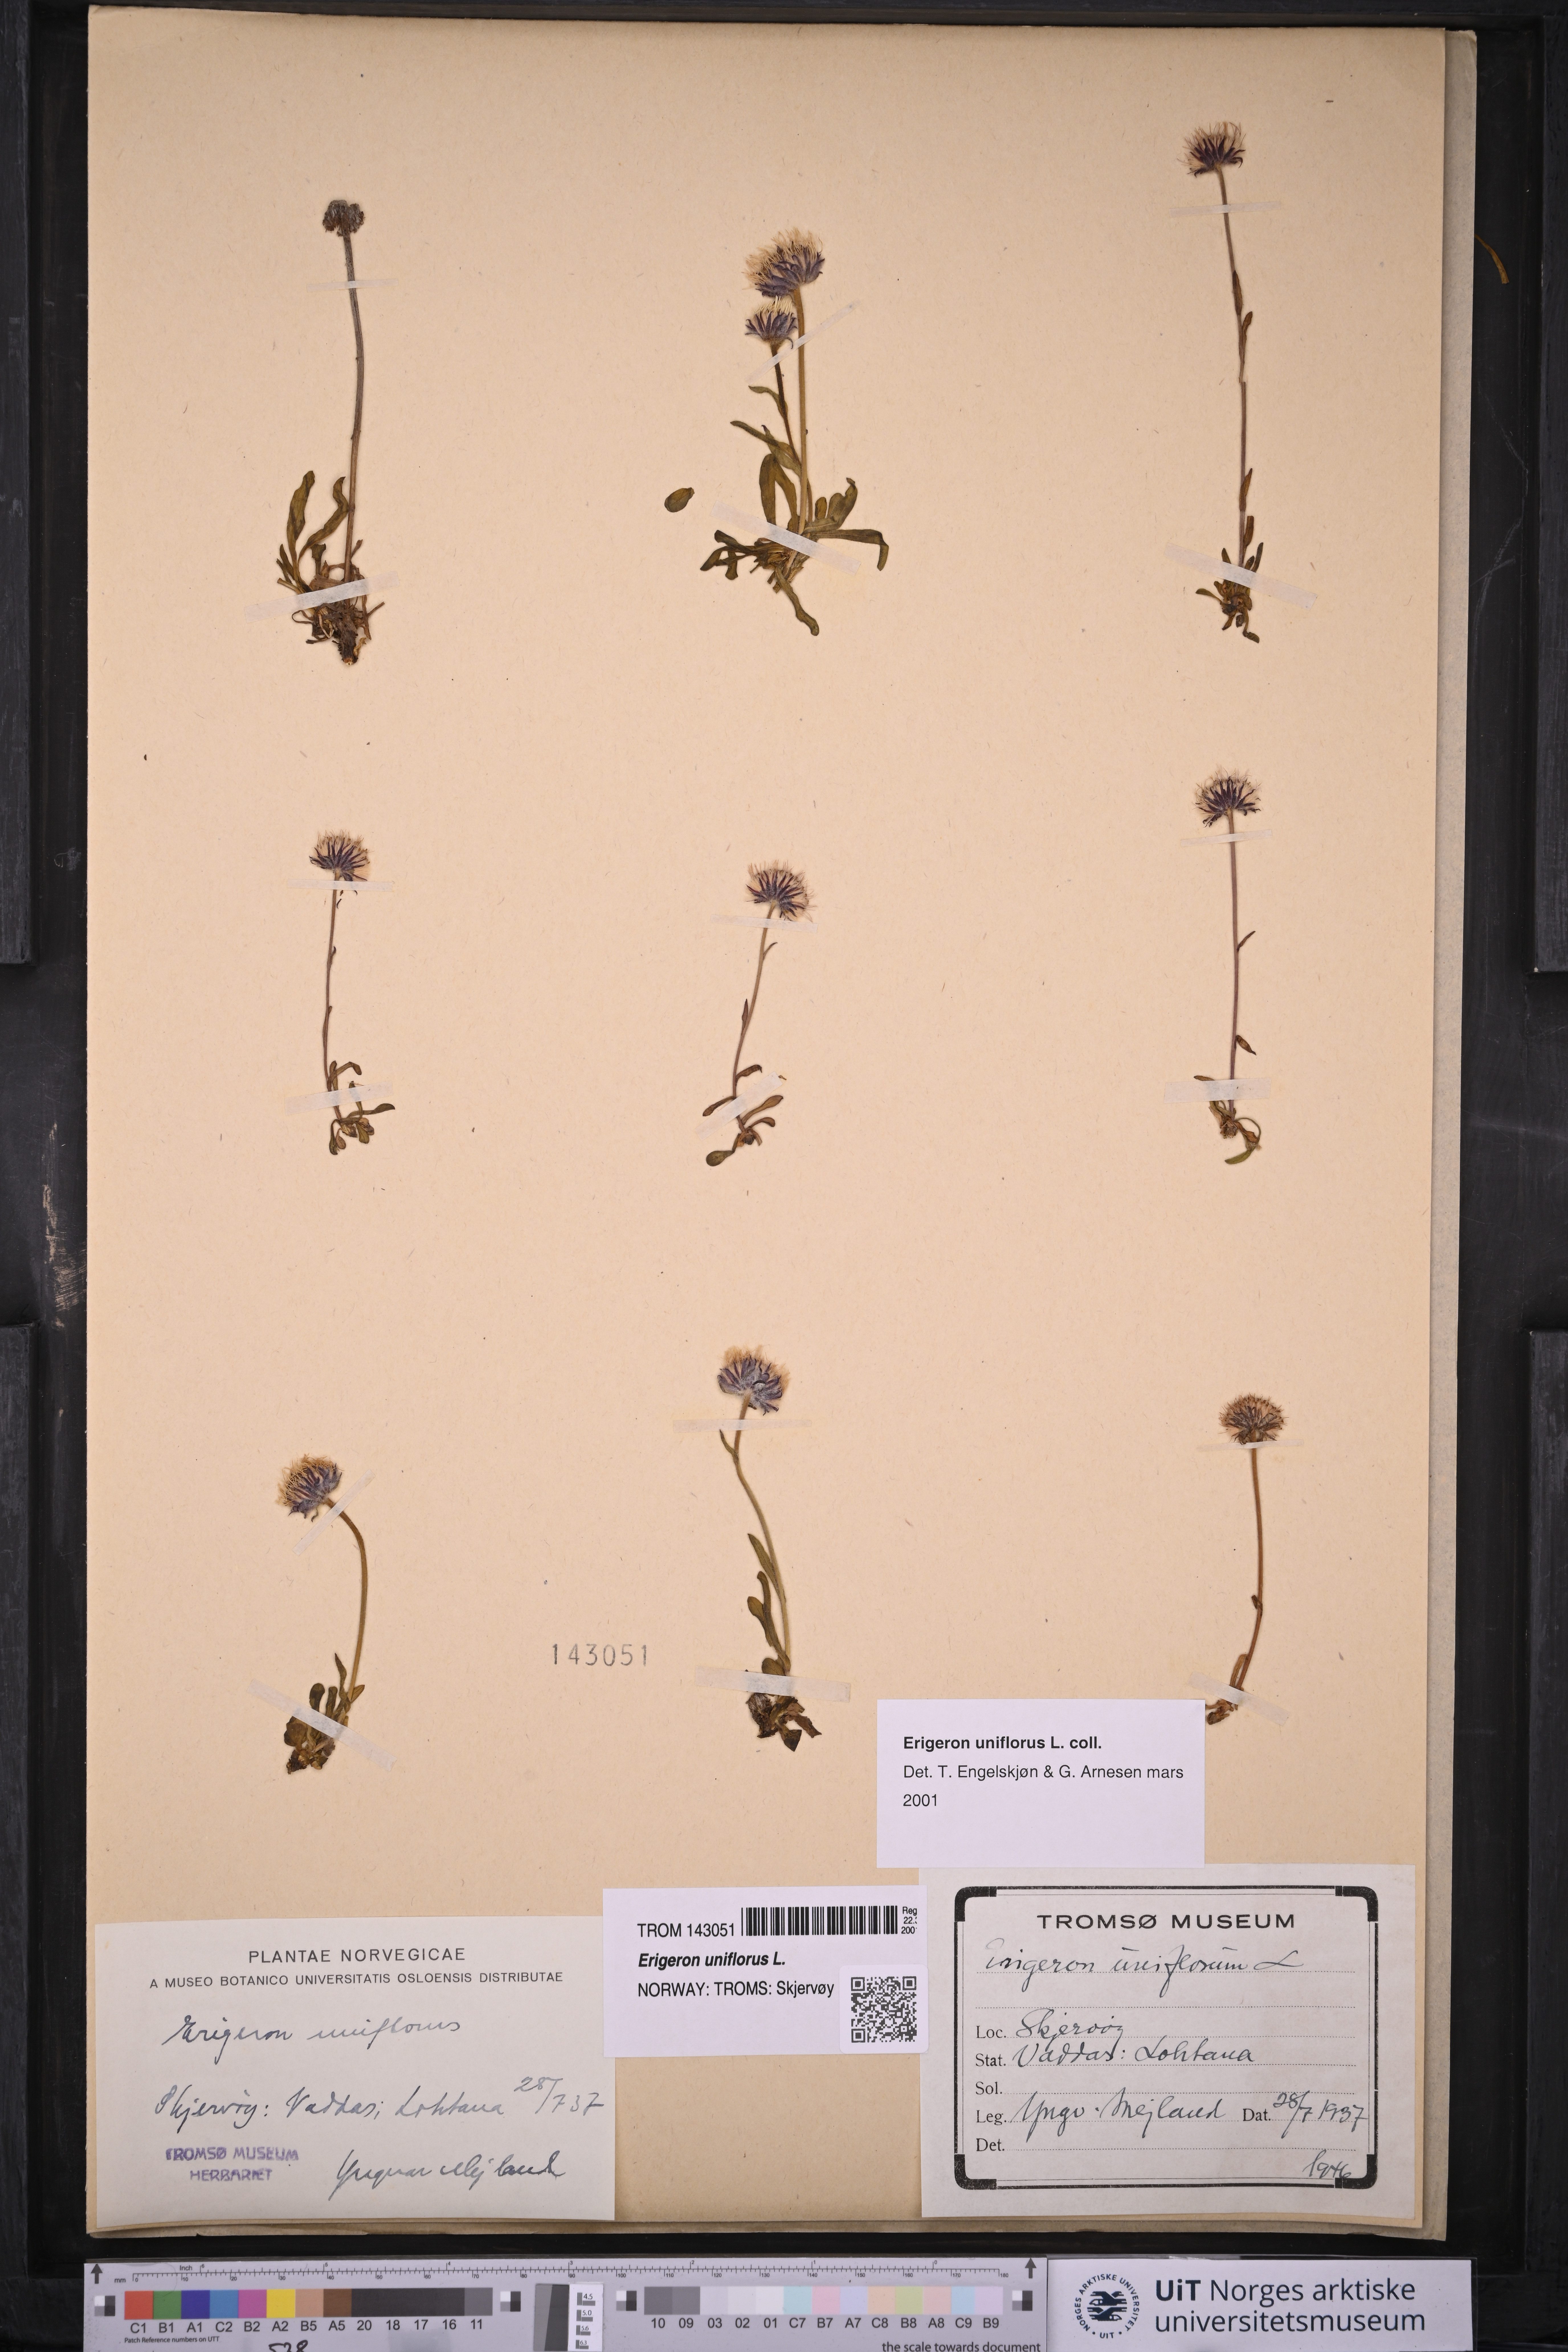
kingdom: Plantae
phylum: Tracheophyta
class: Magnoliopsida
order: Asterales
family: Asteraceae
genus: Erigeron
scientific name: Erigeron uniflorus
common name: Northern daisy
